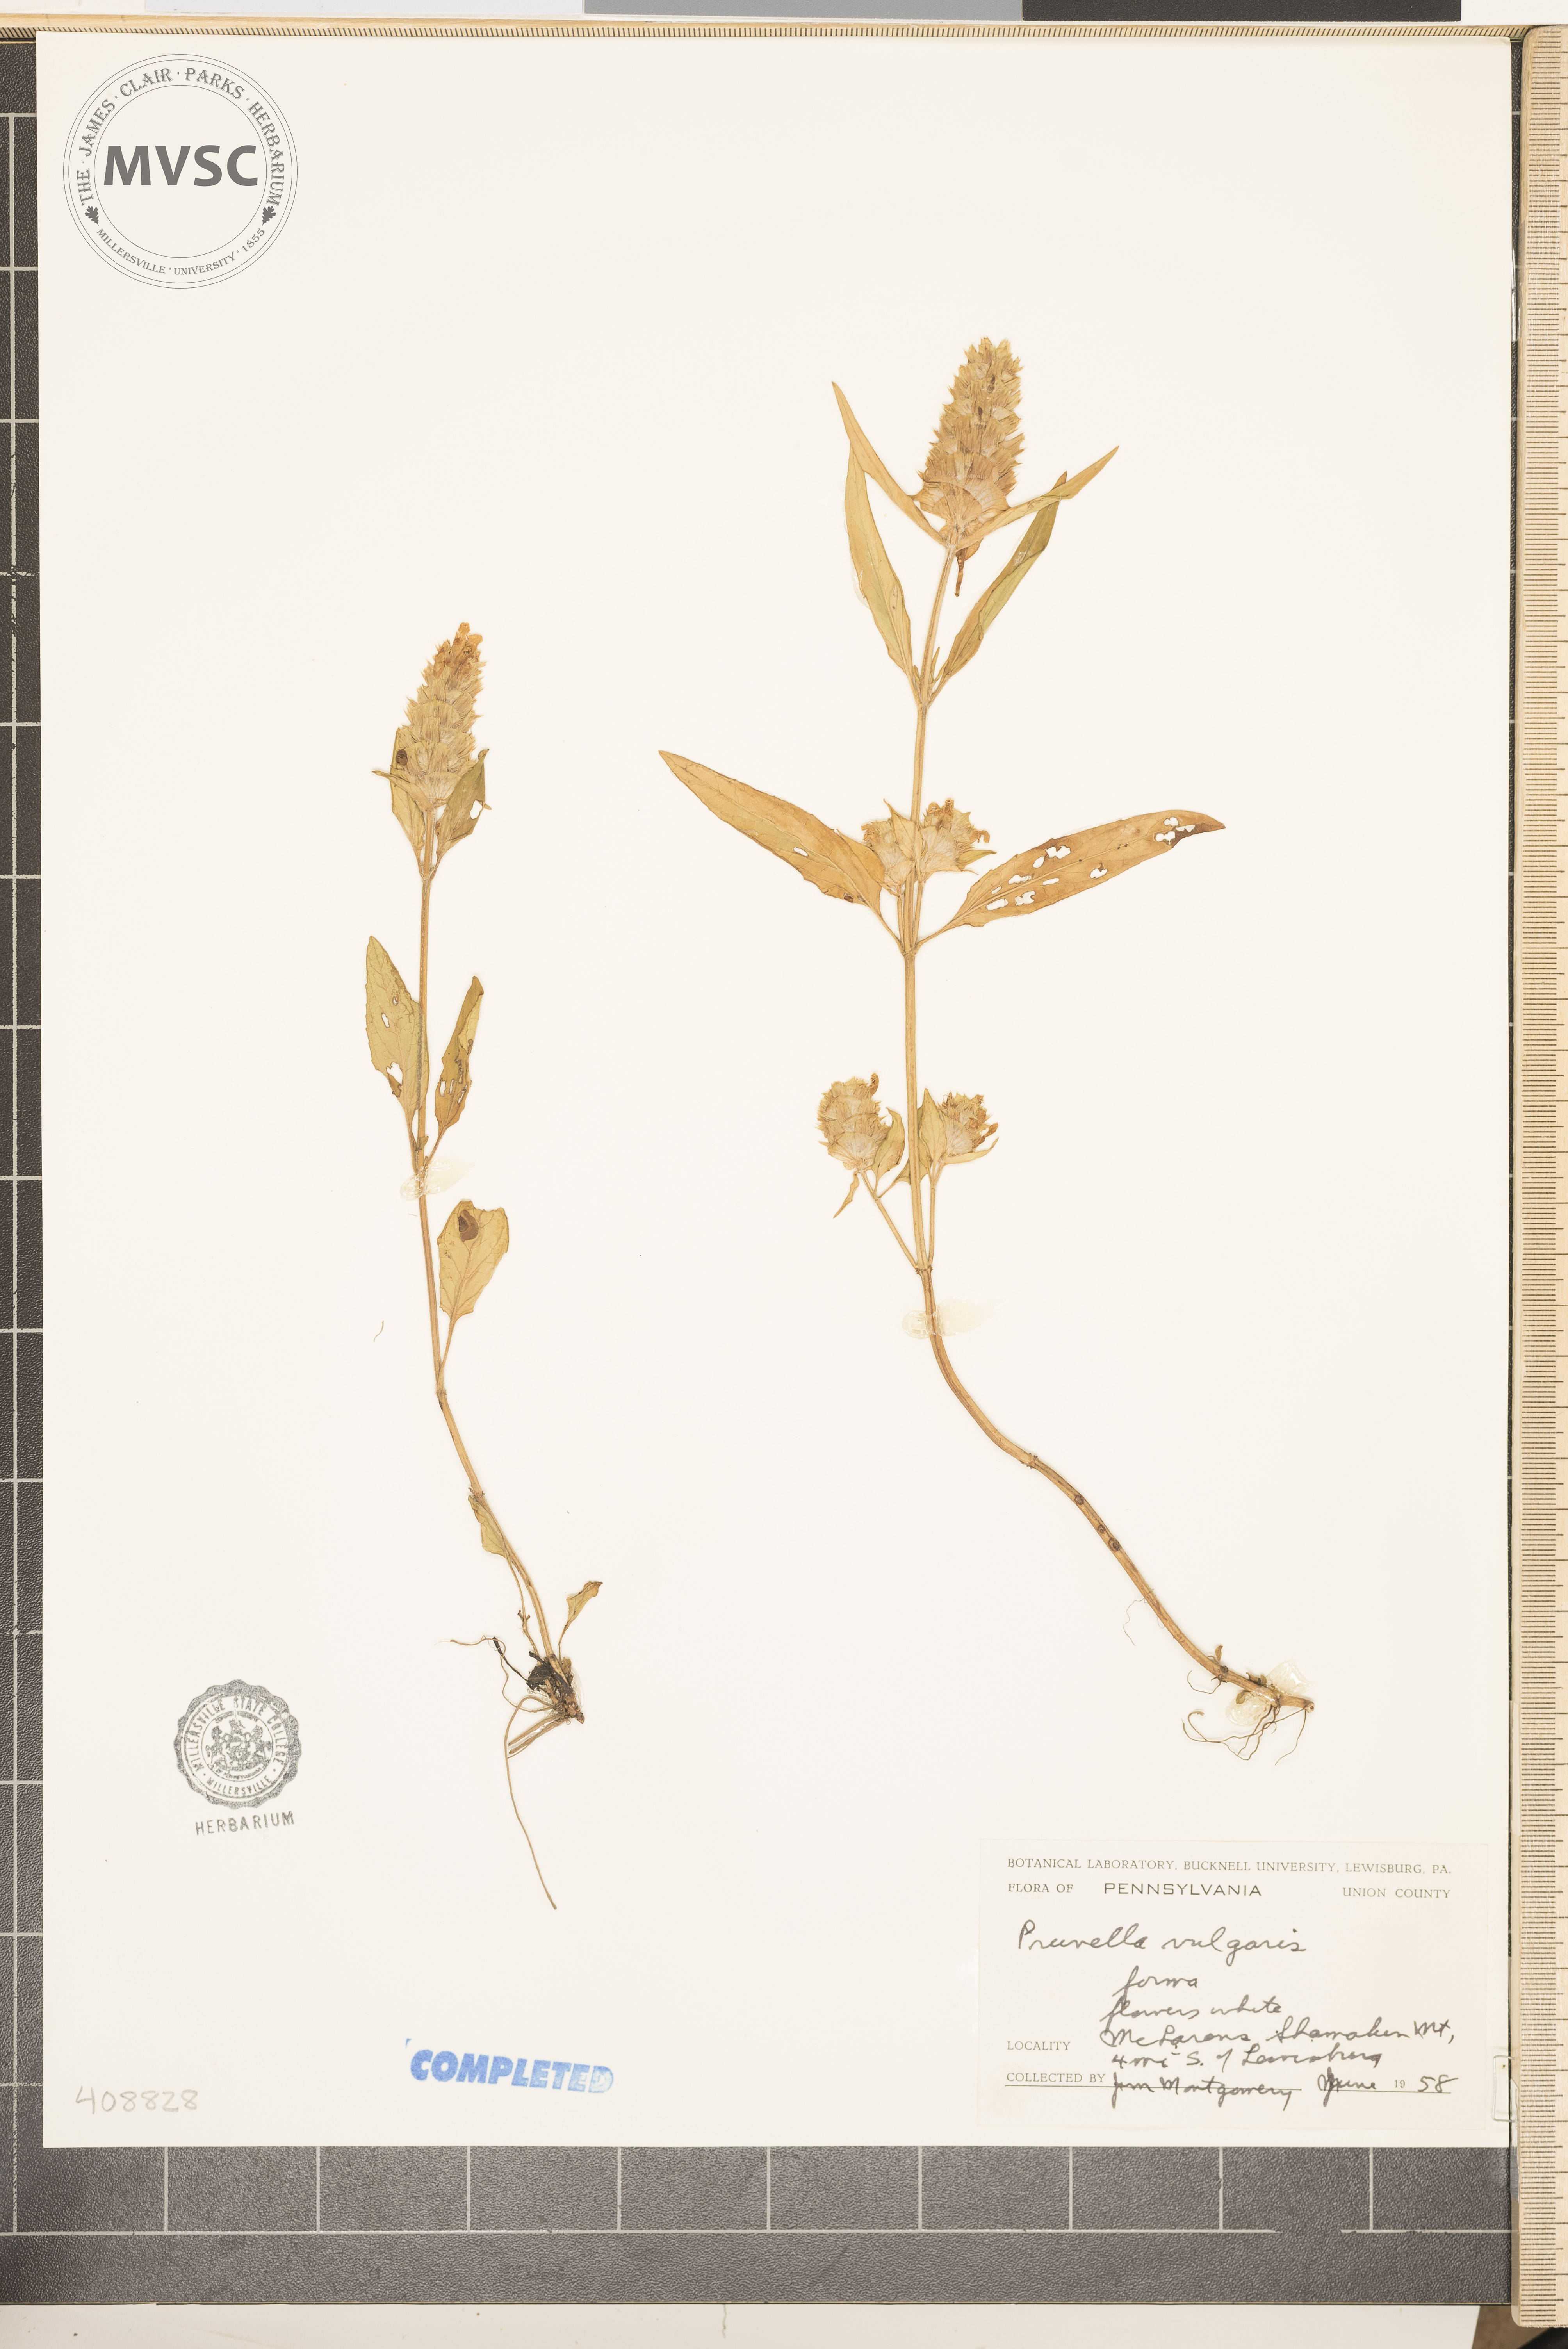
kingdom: Plantae
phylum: Tracheophyta
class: Magnoliopsida
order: Lamiales
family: Lamiaceae
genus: Prunella
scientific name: Prunella vulgaris
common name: Heal-all
